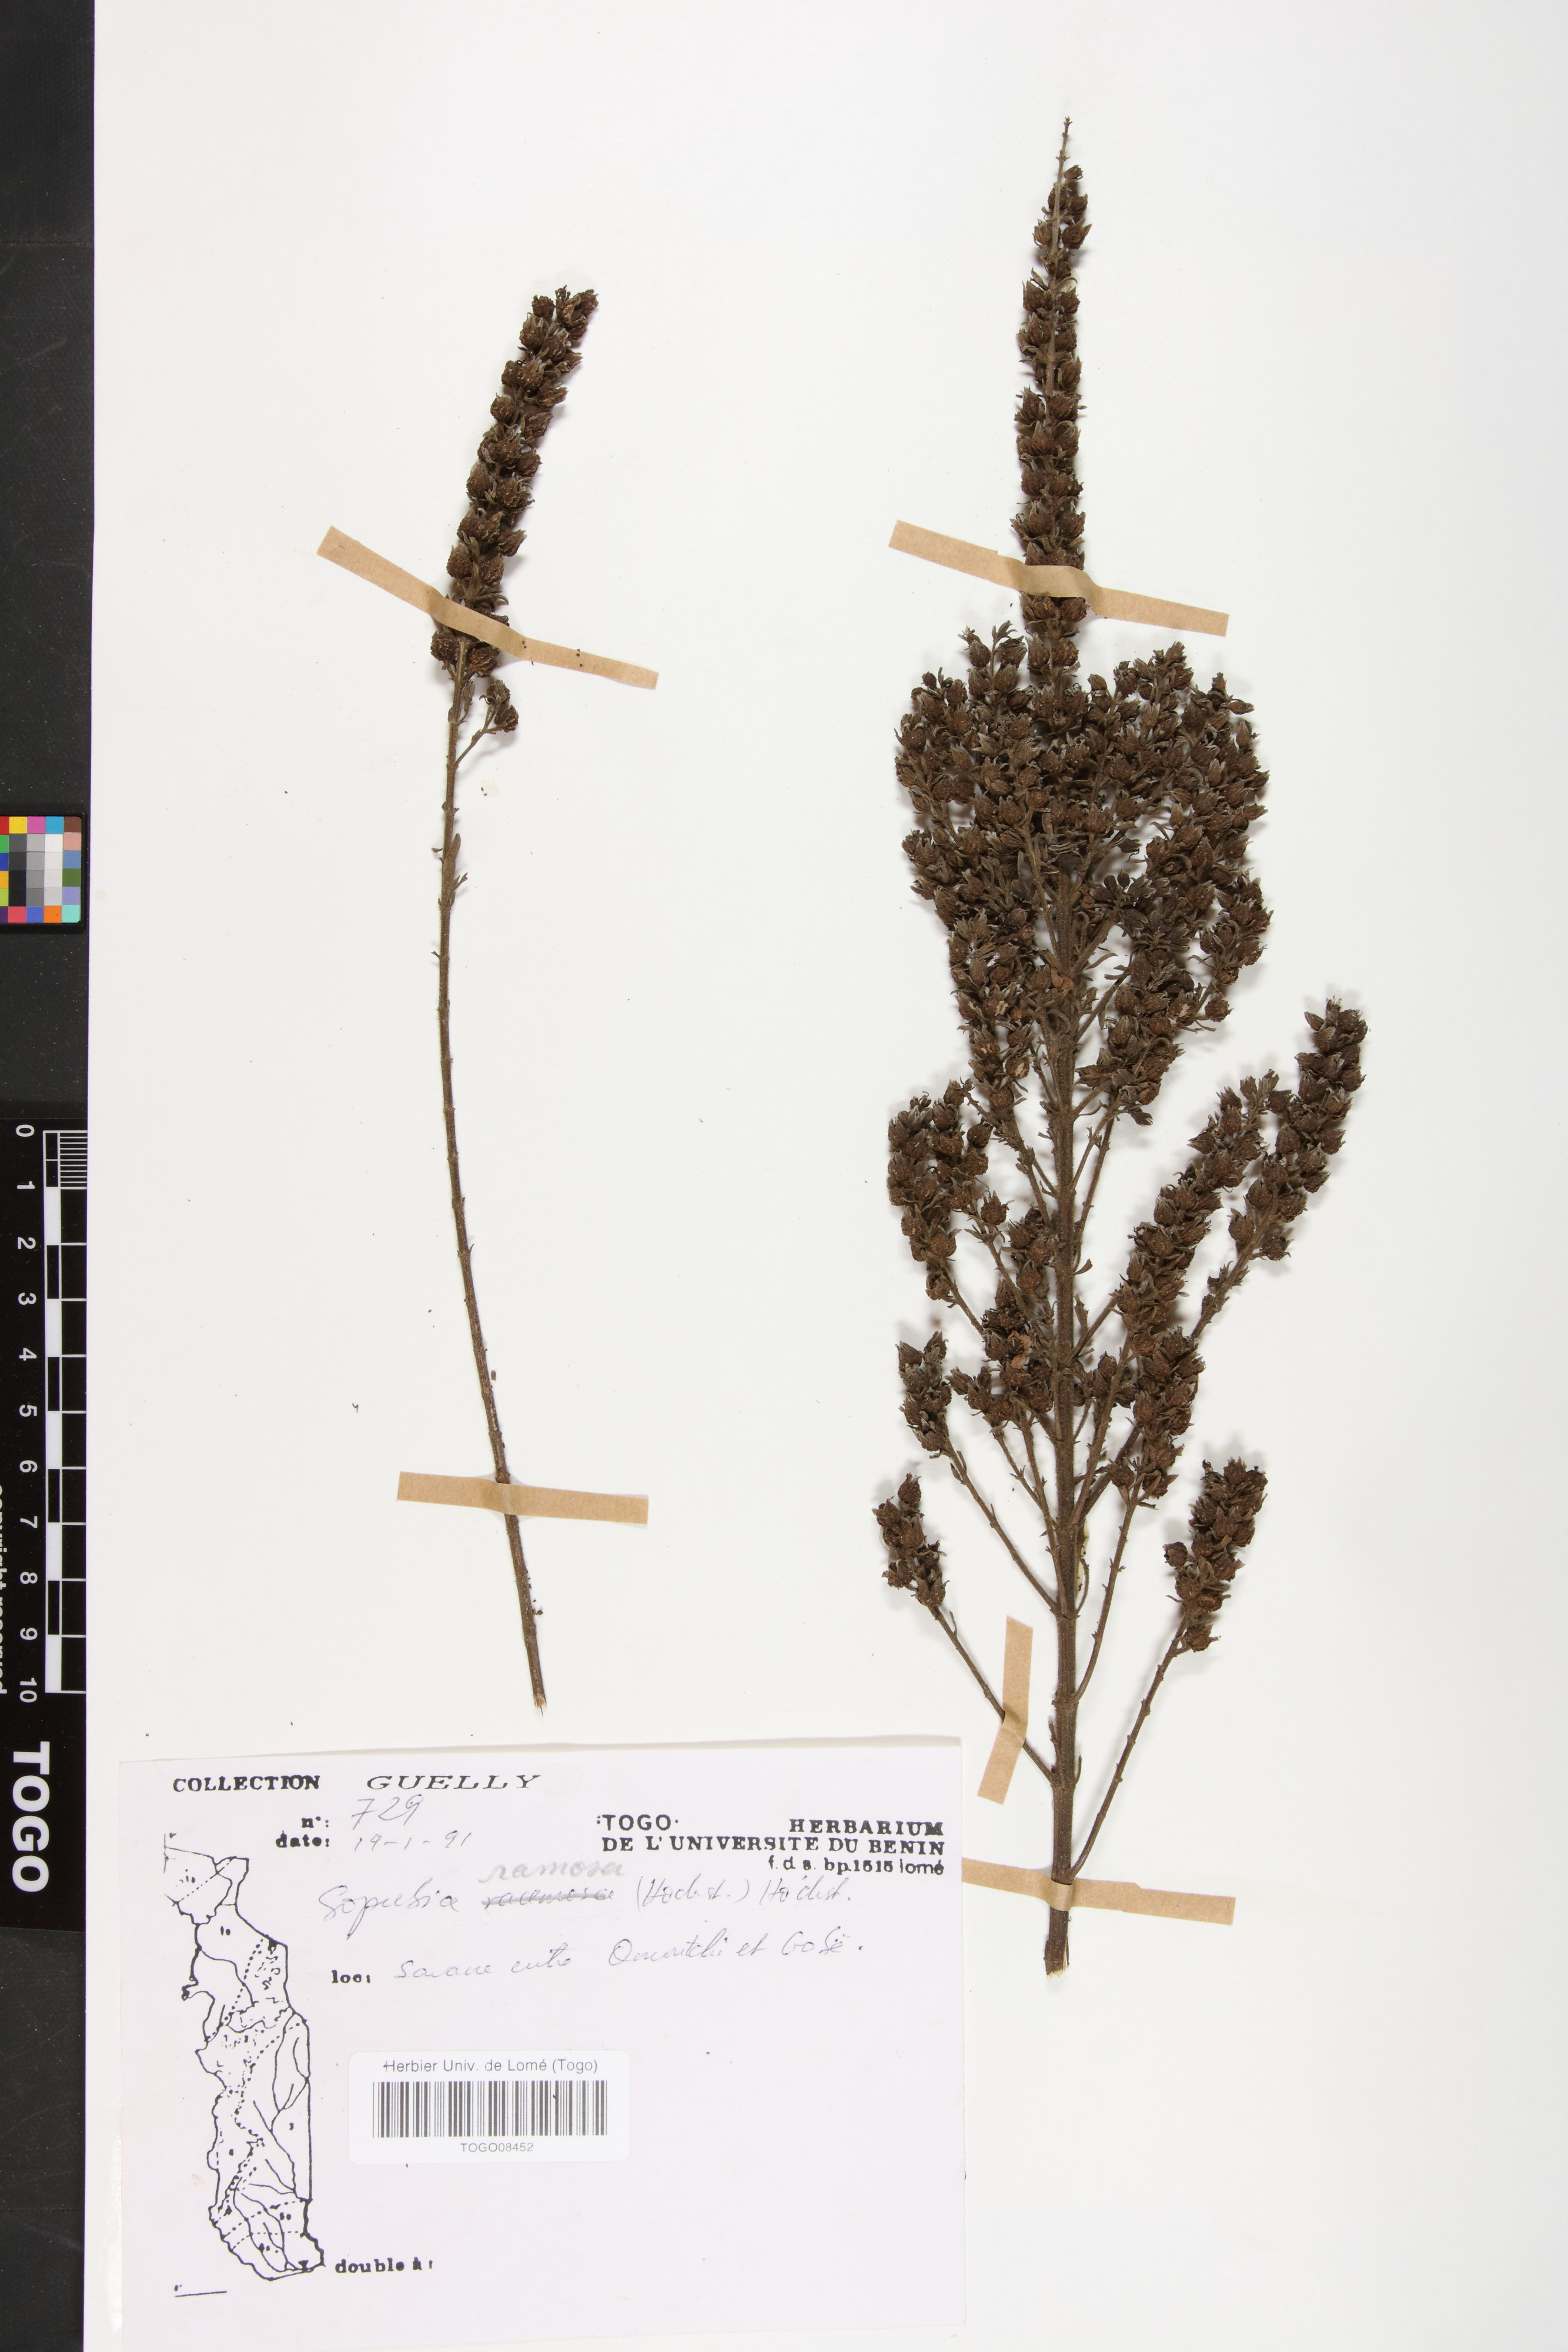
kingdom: Plantae
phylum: Tracheophyta
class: Magnoliopsida
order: Lamiales
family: Orobanchaceae
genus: Sopubia
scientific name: Sopubia ramosa
